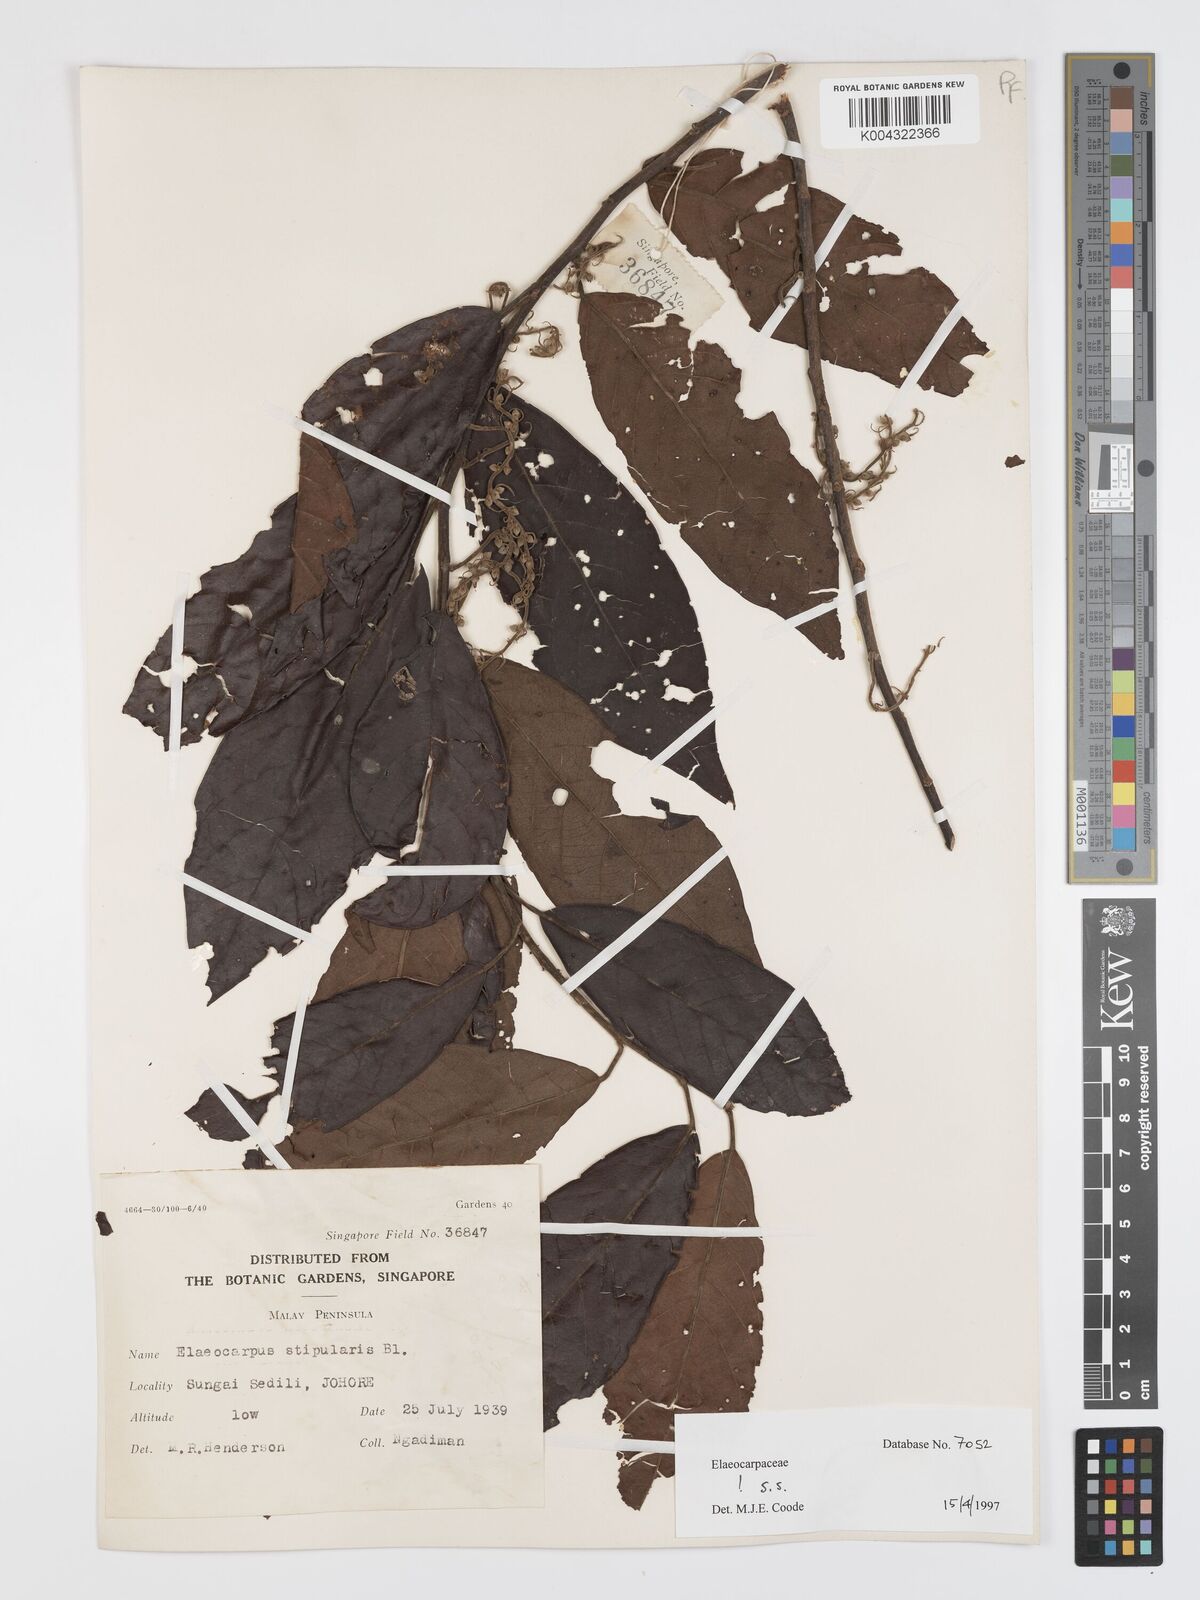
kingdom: Plantae
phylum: Tracheophyta
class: Magnoliopsida
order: Oxalidales
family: Elaeocarpaceae
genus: Elaeocarpus
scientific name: Elaeocarpus stipularis
